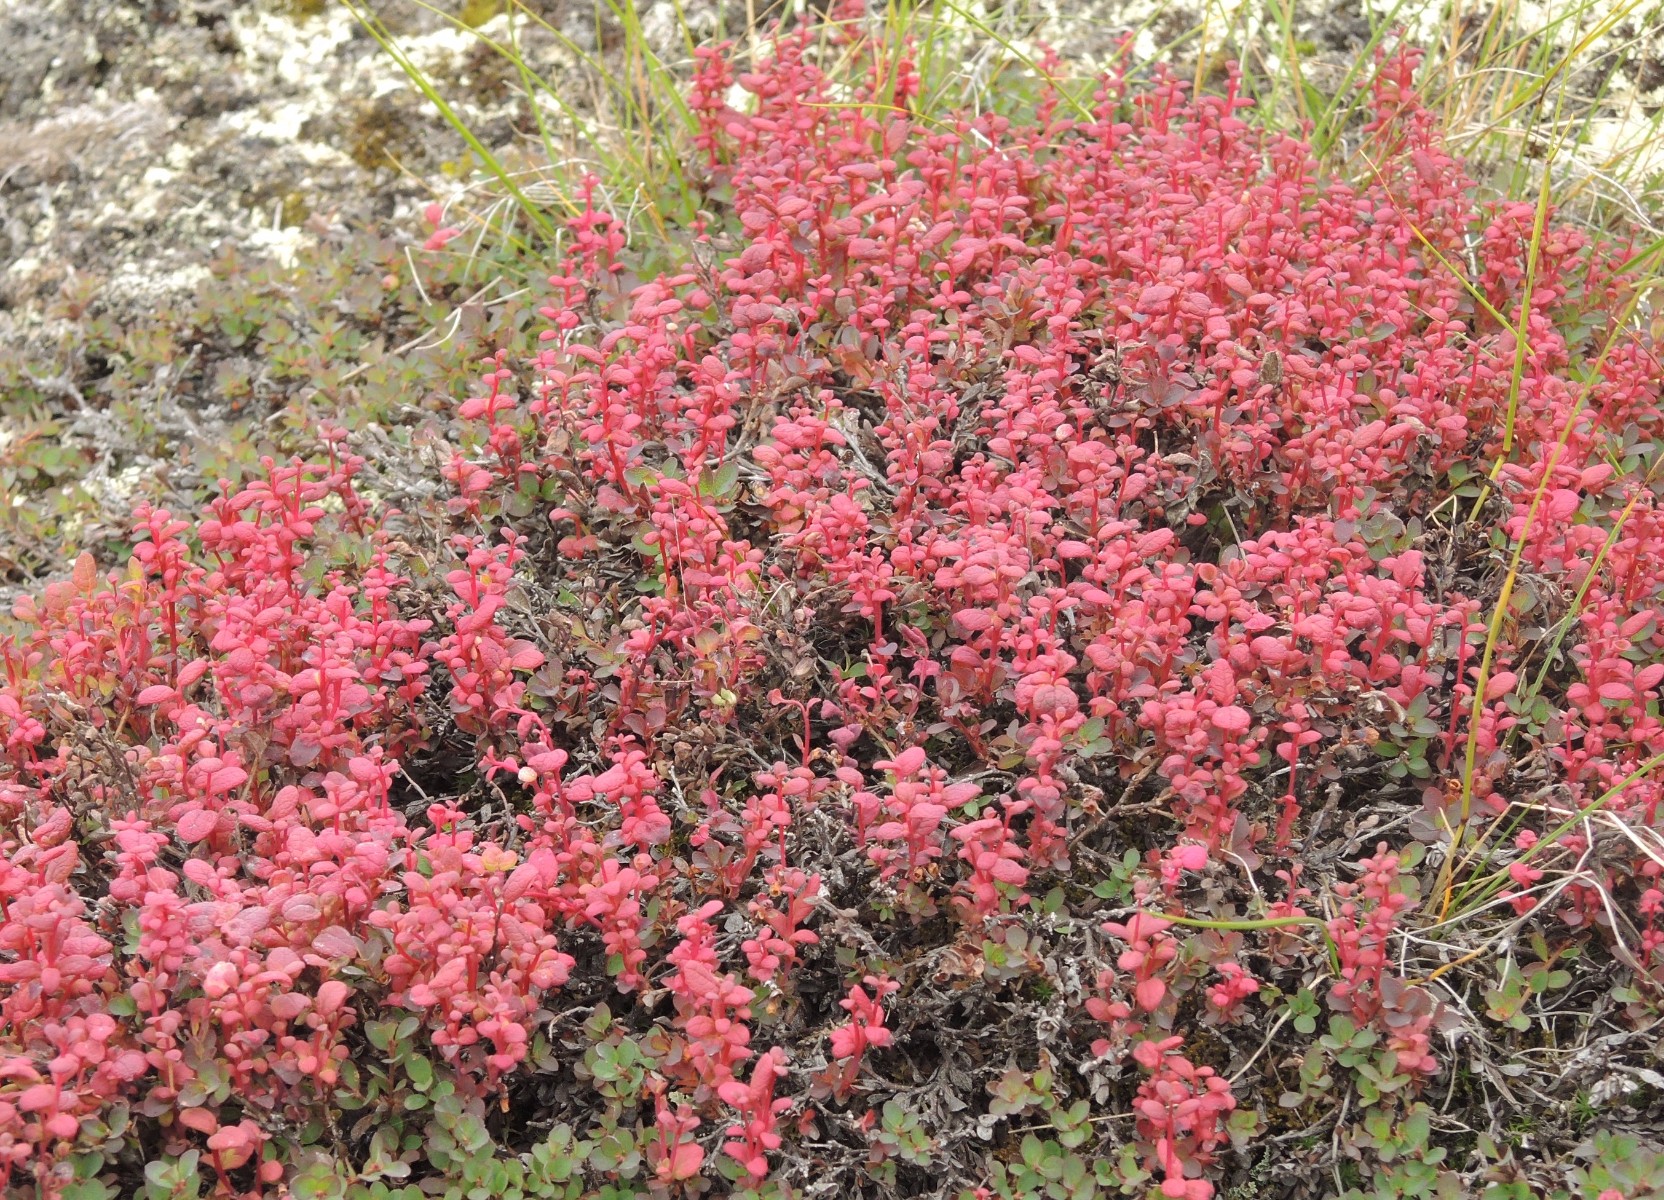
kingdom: Fungi
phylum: Basidiomycota
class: Exobasidiomycetes
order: Exobasidiales
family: Exobasidiaceae
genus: Exobasidium
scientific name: Exobasidium vaccinii-uliginosi
